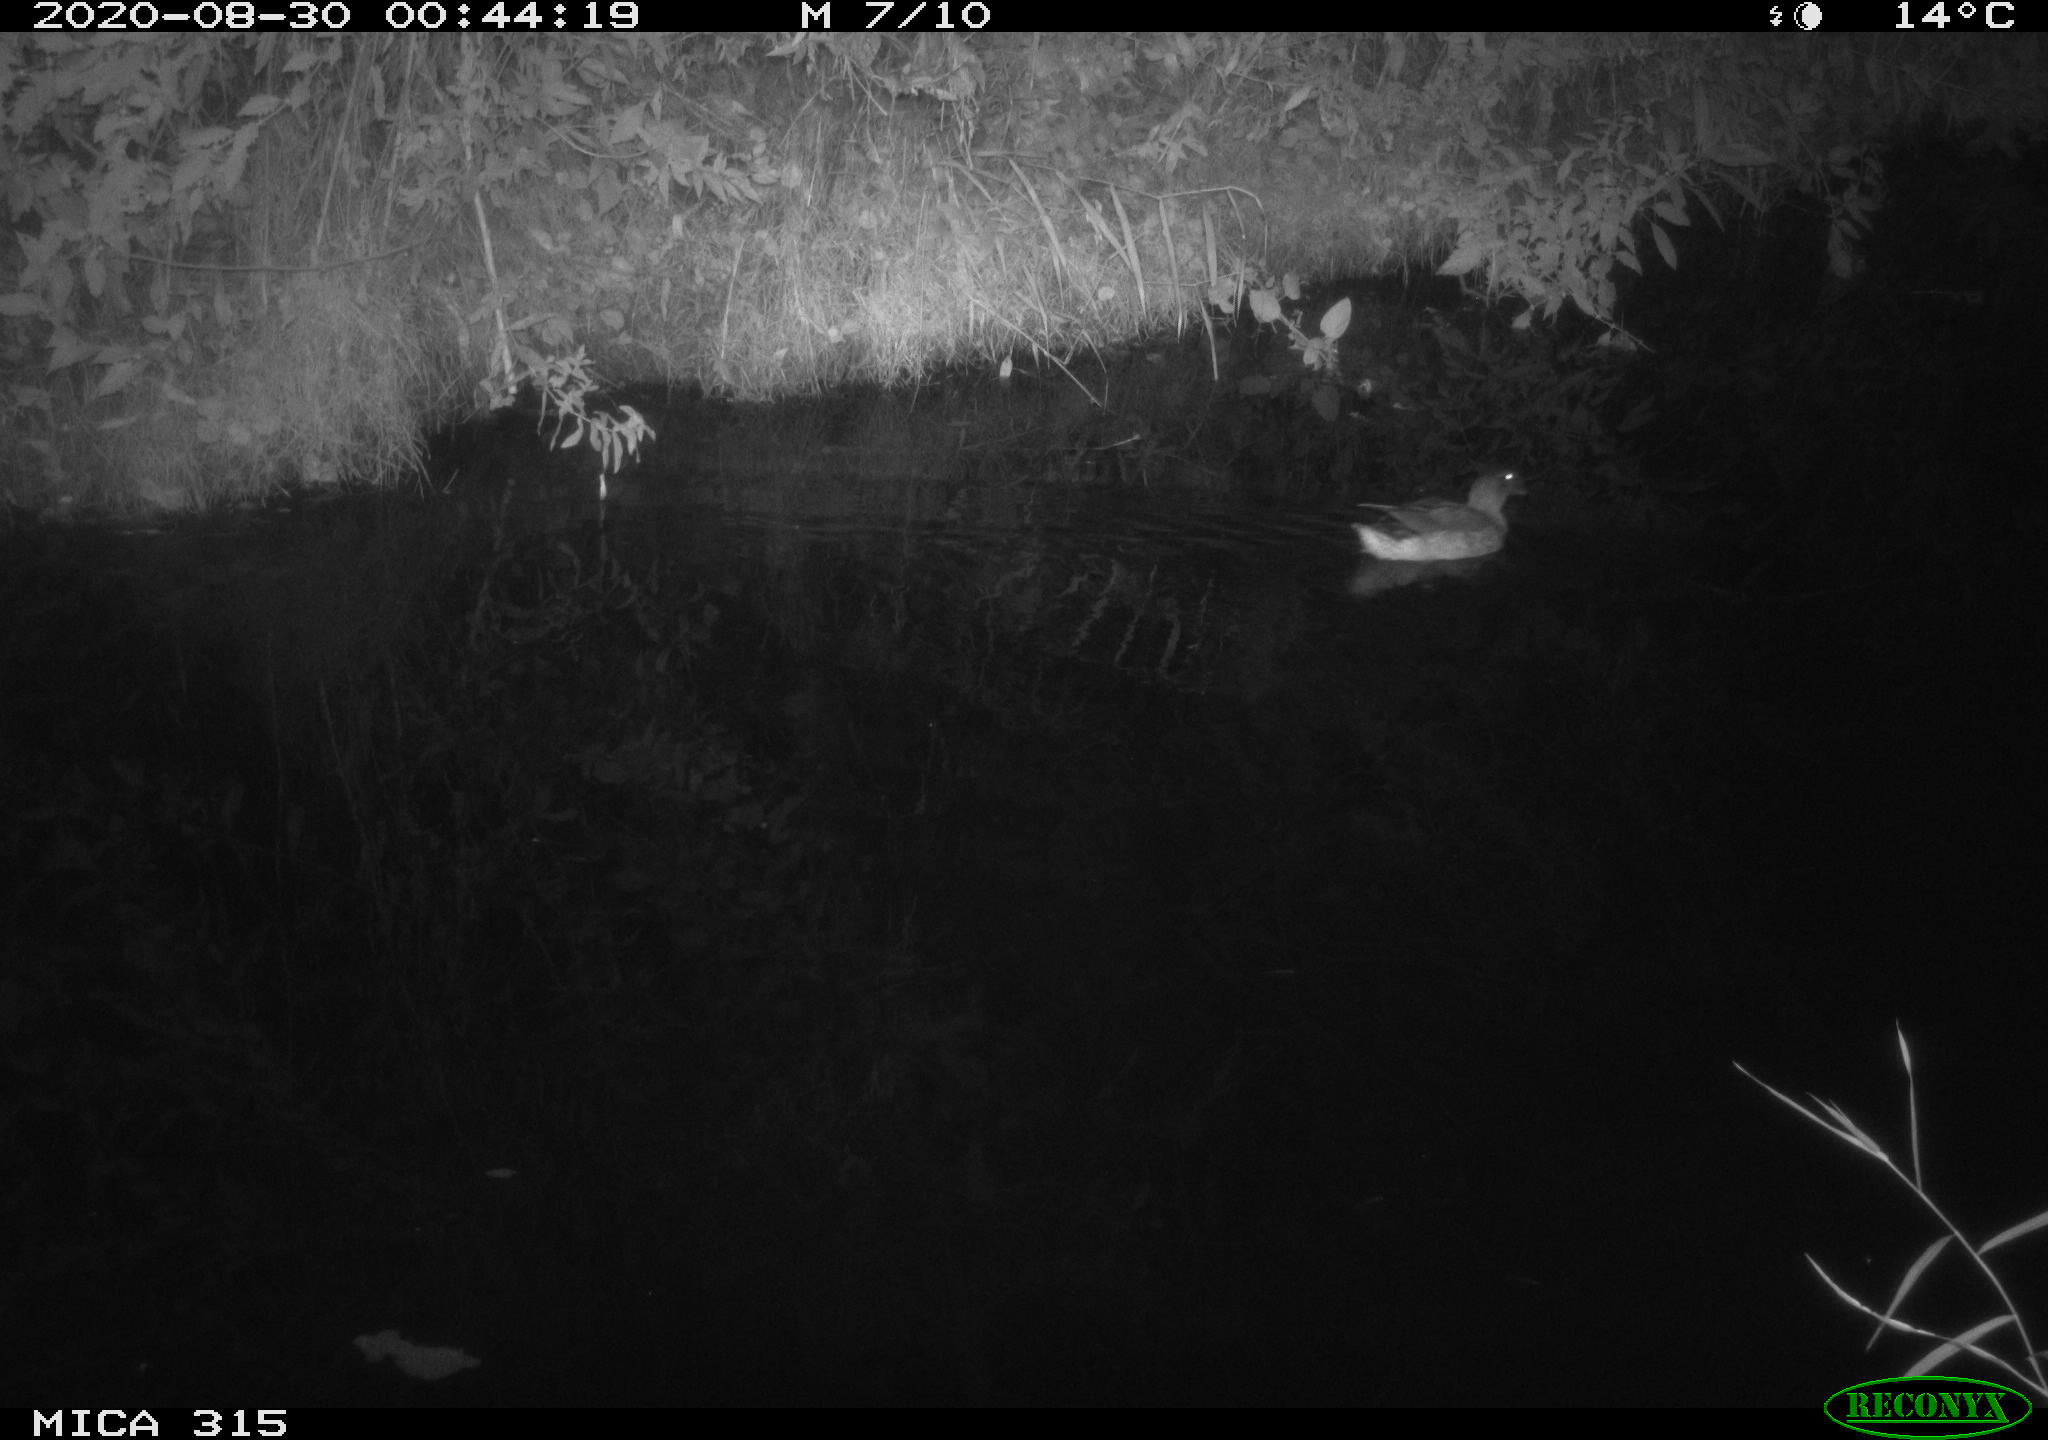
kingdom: Animalia
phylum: Chordata
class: Aves
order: Anseriformes
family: Anatidae
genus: Anas
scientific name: Anas platyrhynchos
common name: Mallard
